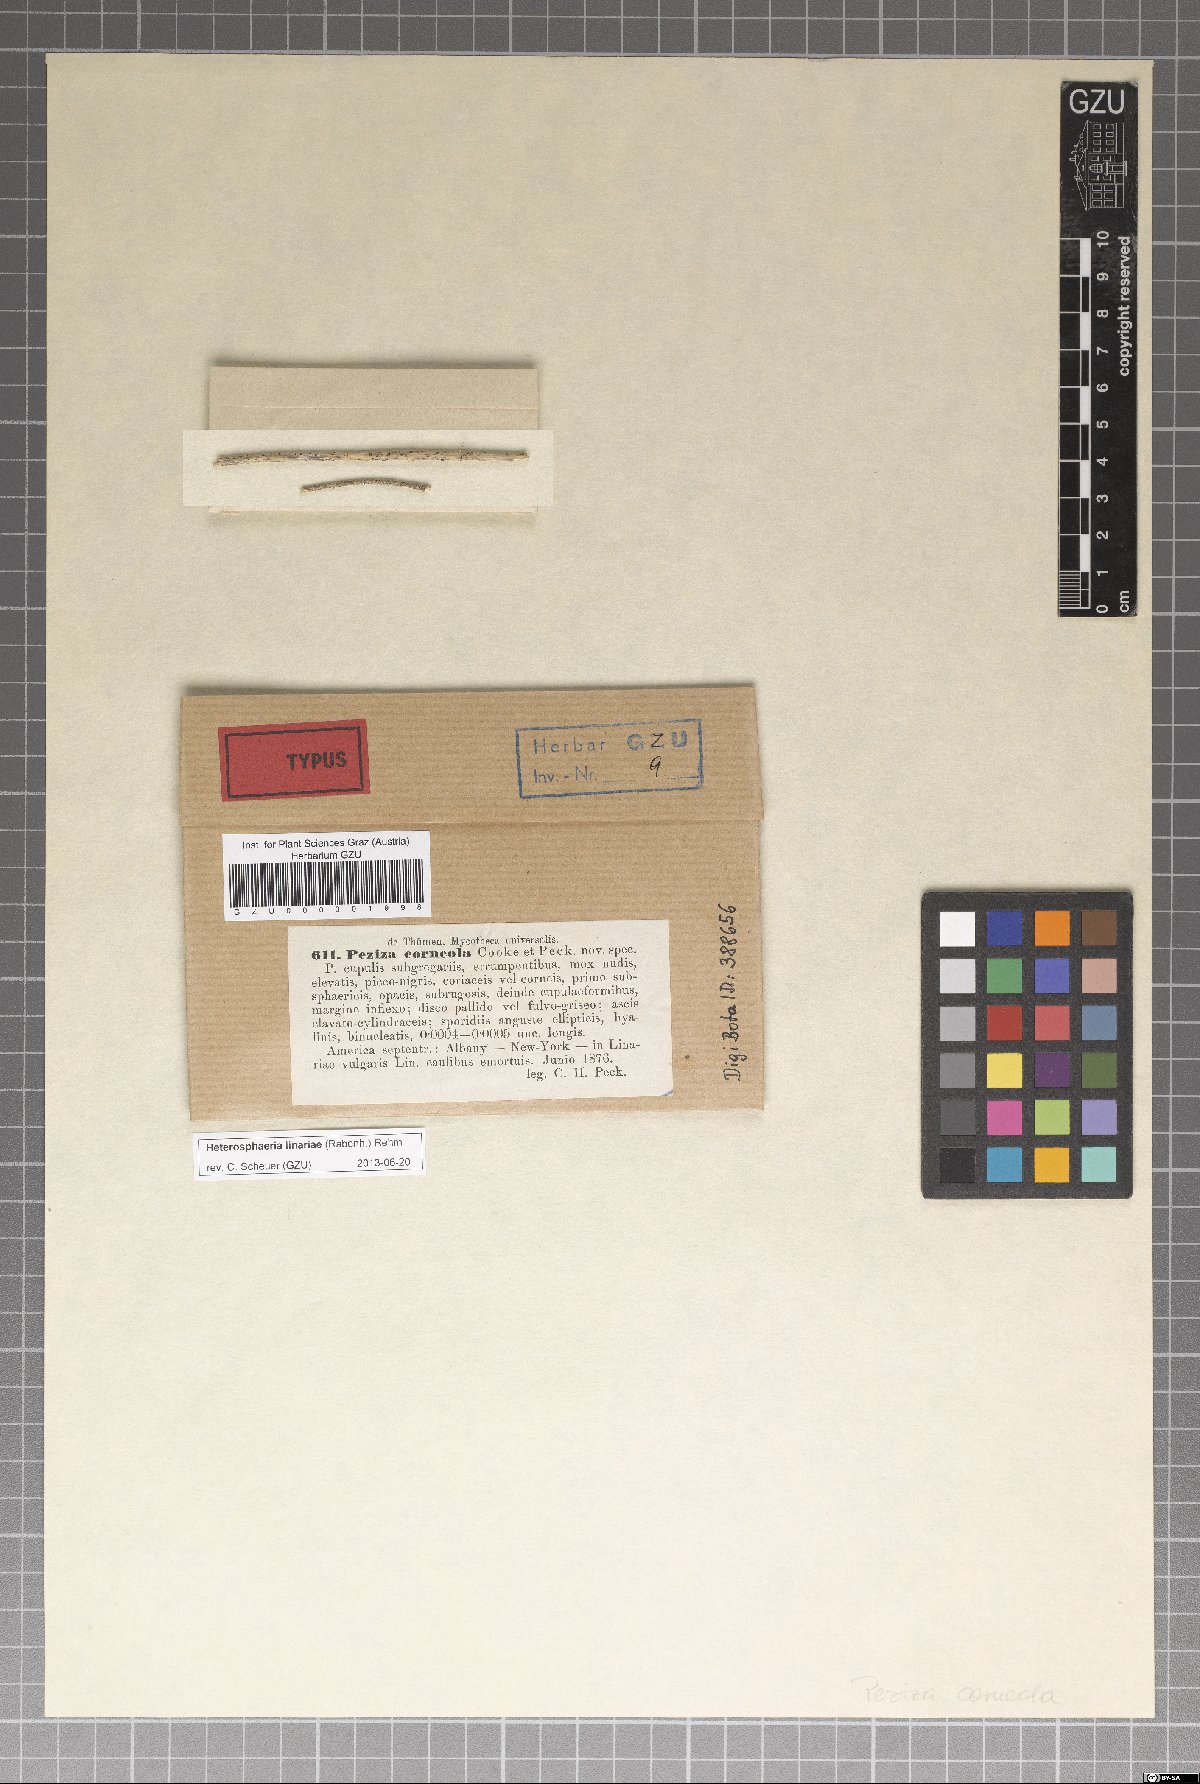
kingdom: Fungi
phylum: Ascomycota
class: Pezizomycetes
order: Pezizales
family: Pezizaceae
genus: Peziza
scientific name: Peziza
